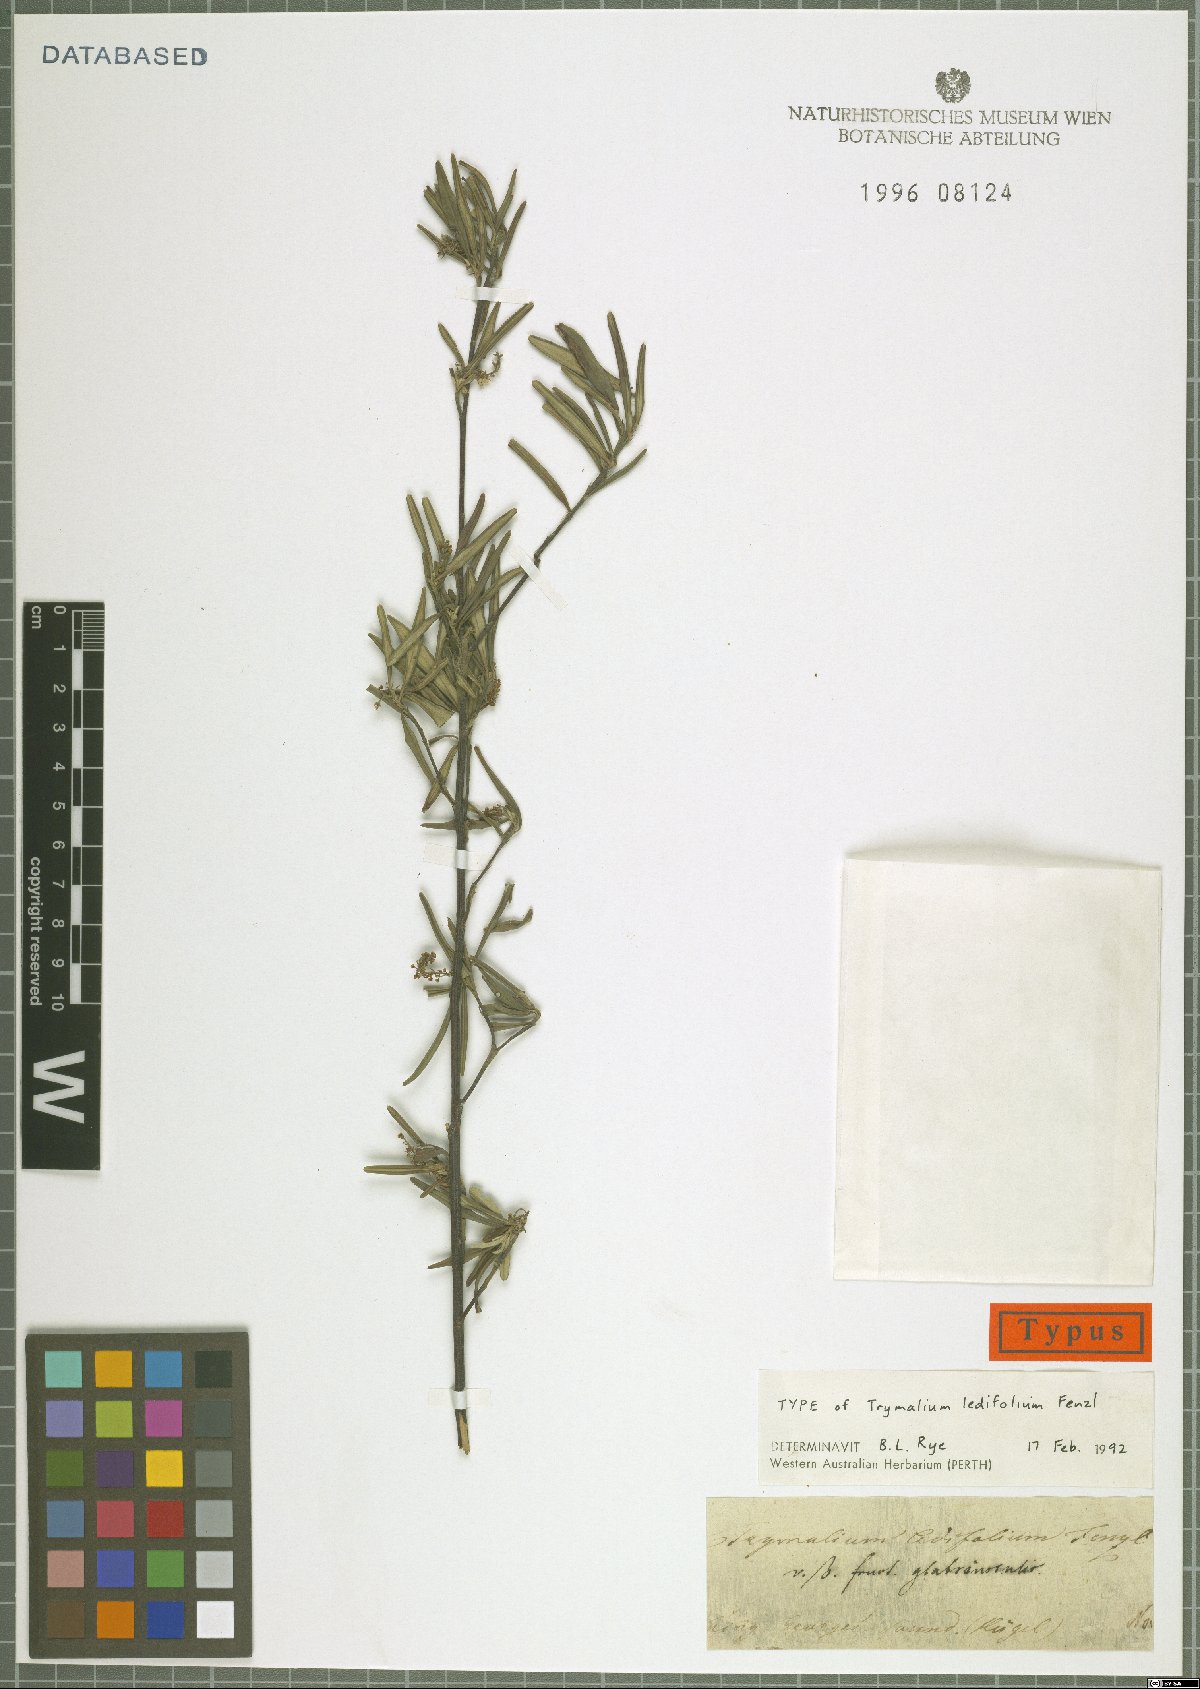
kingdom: Plantae
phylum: Tracheophyta
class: Magnoliopsida
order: Rosales
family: Rhamnaceae
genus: Trymalium
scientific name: Trymalium ledifolium
